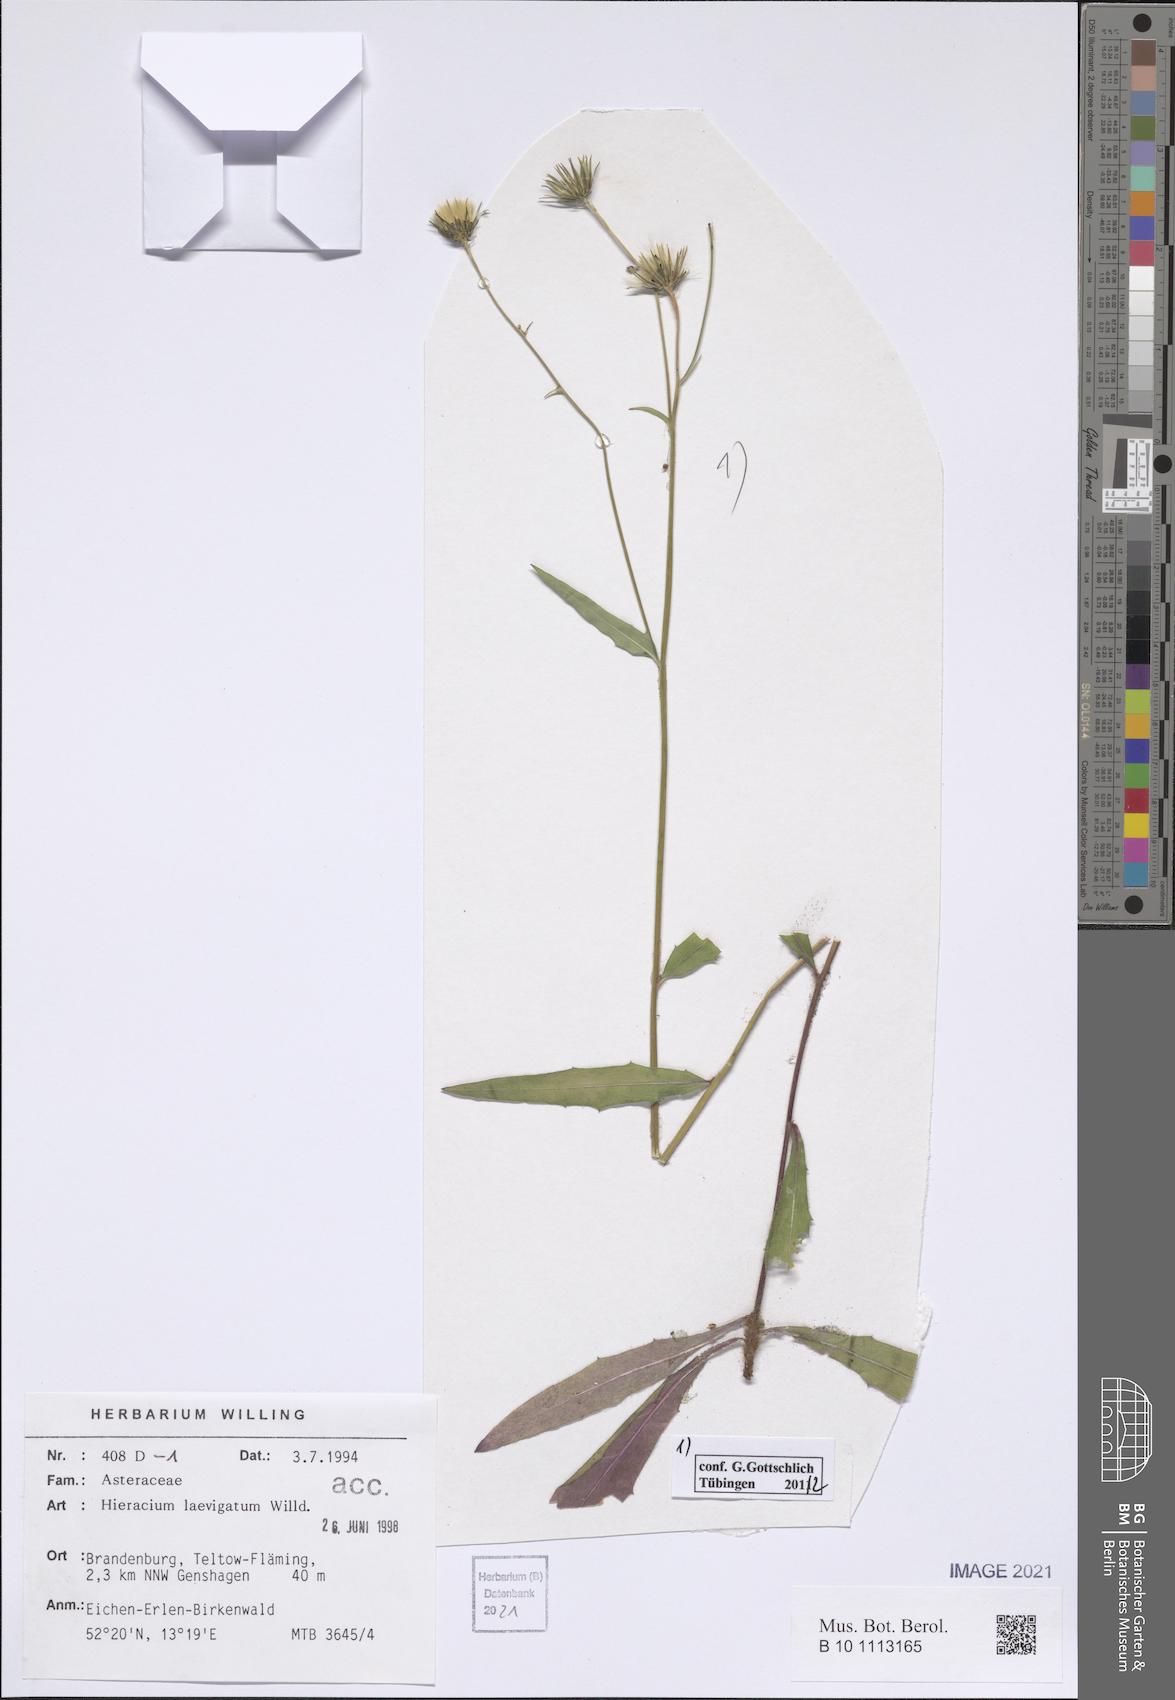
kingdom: Plantae
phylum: Tracheophyta
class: Magnoliopsida
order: Asterales
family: Asteraceae
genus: Hieracium
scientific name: Hieracium laevigatum
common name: Smooth hawkweed
